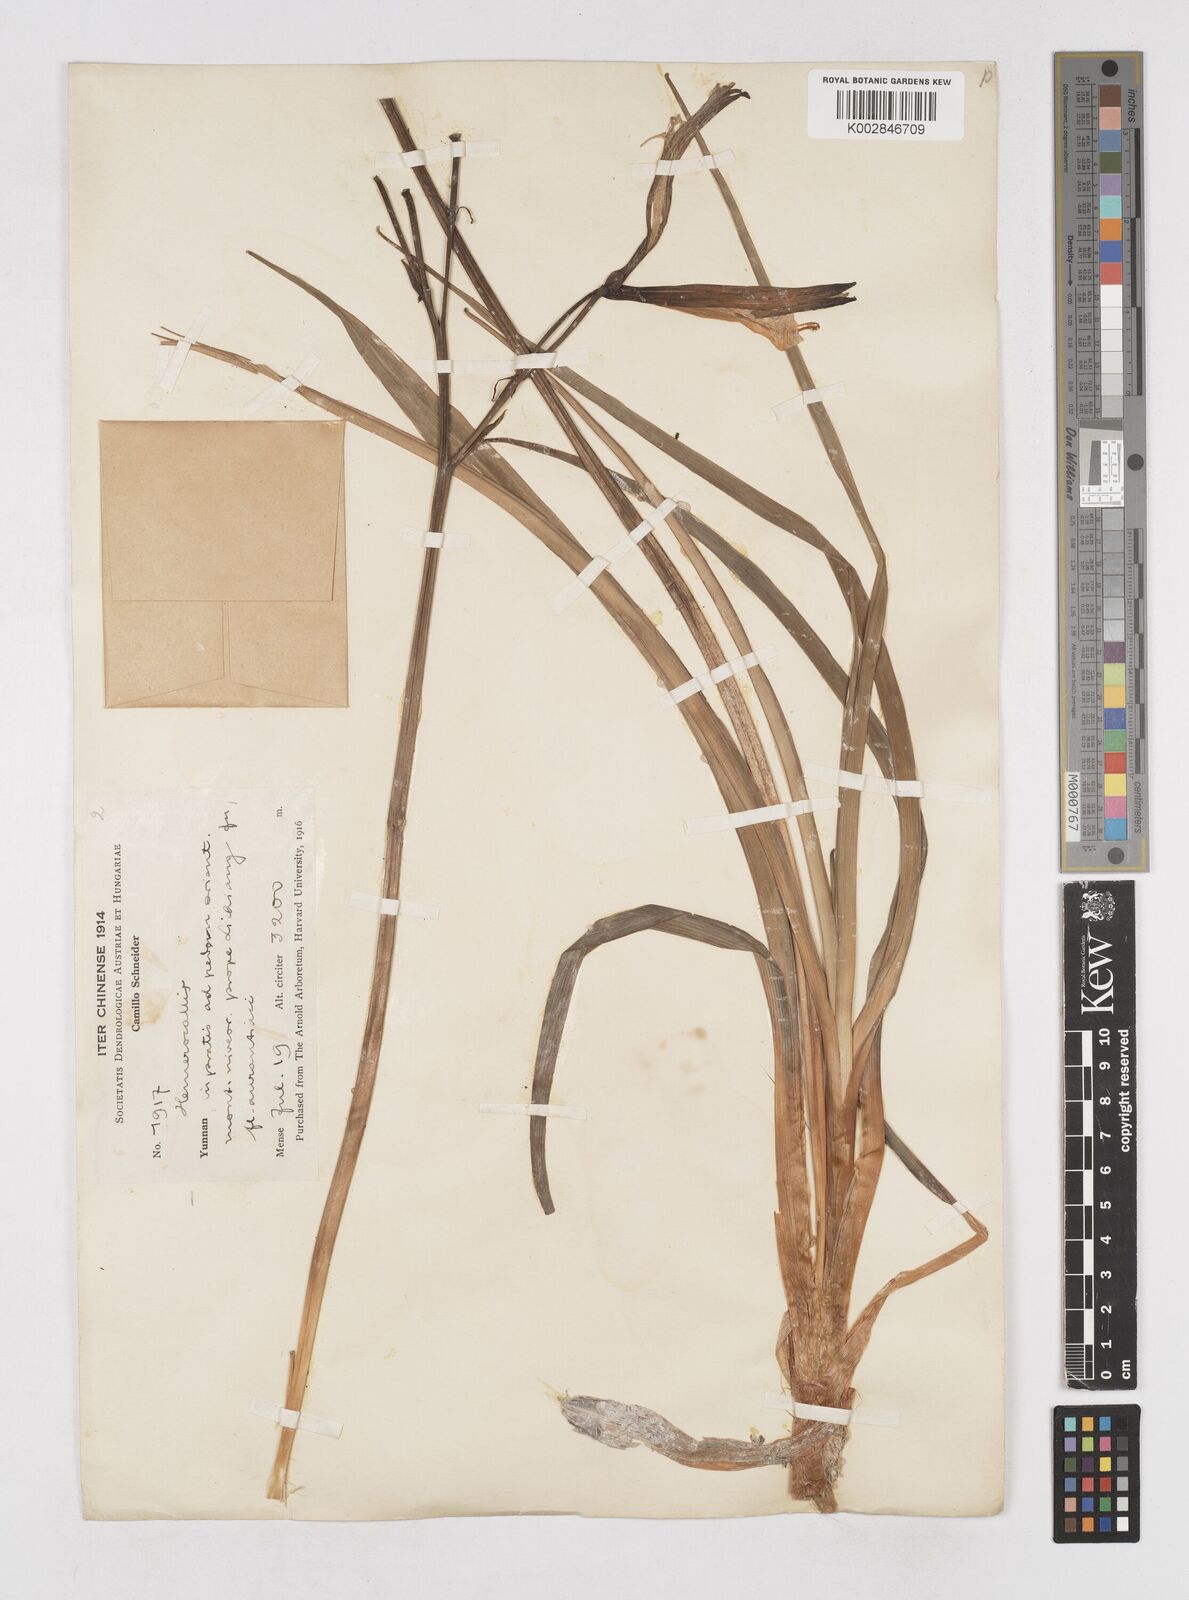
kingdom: Plantae
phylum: Tracheophyta
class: Liliopsida
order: Asparagales
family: Asphodelaceae
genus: Hemerocallis
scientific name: Hemerocallis
